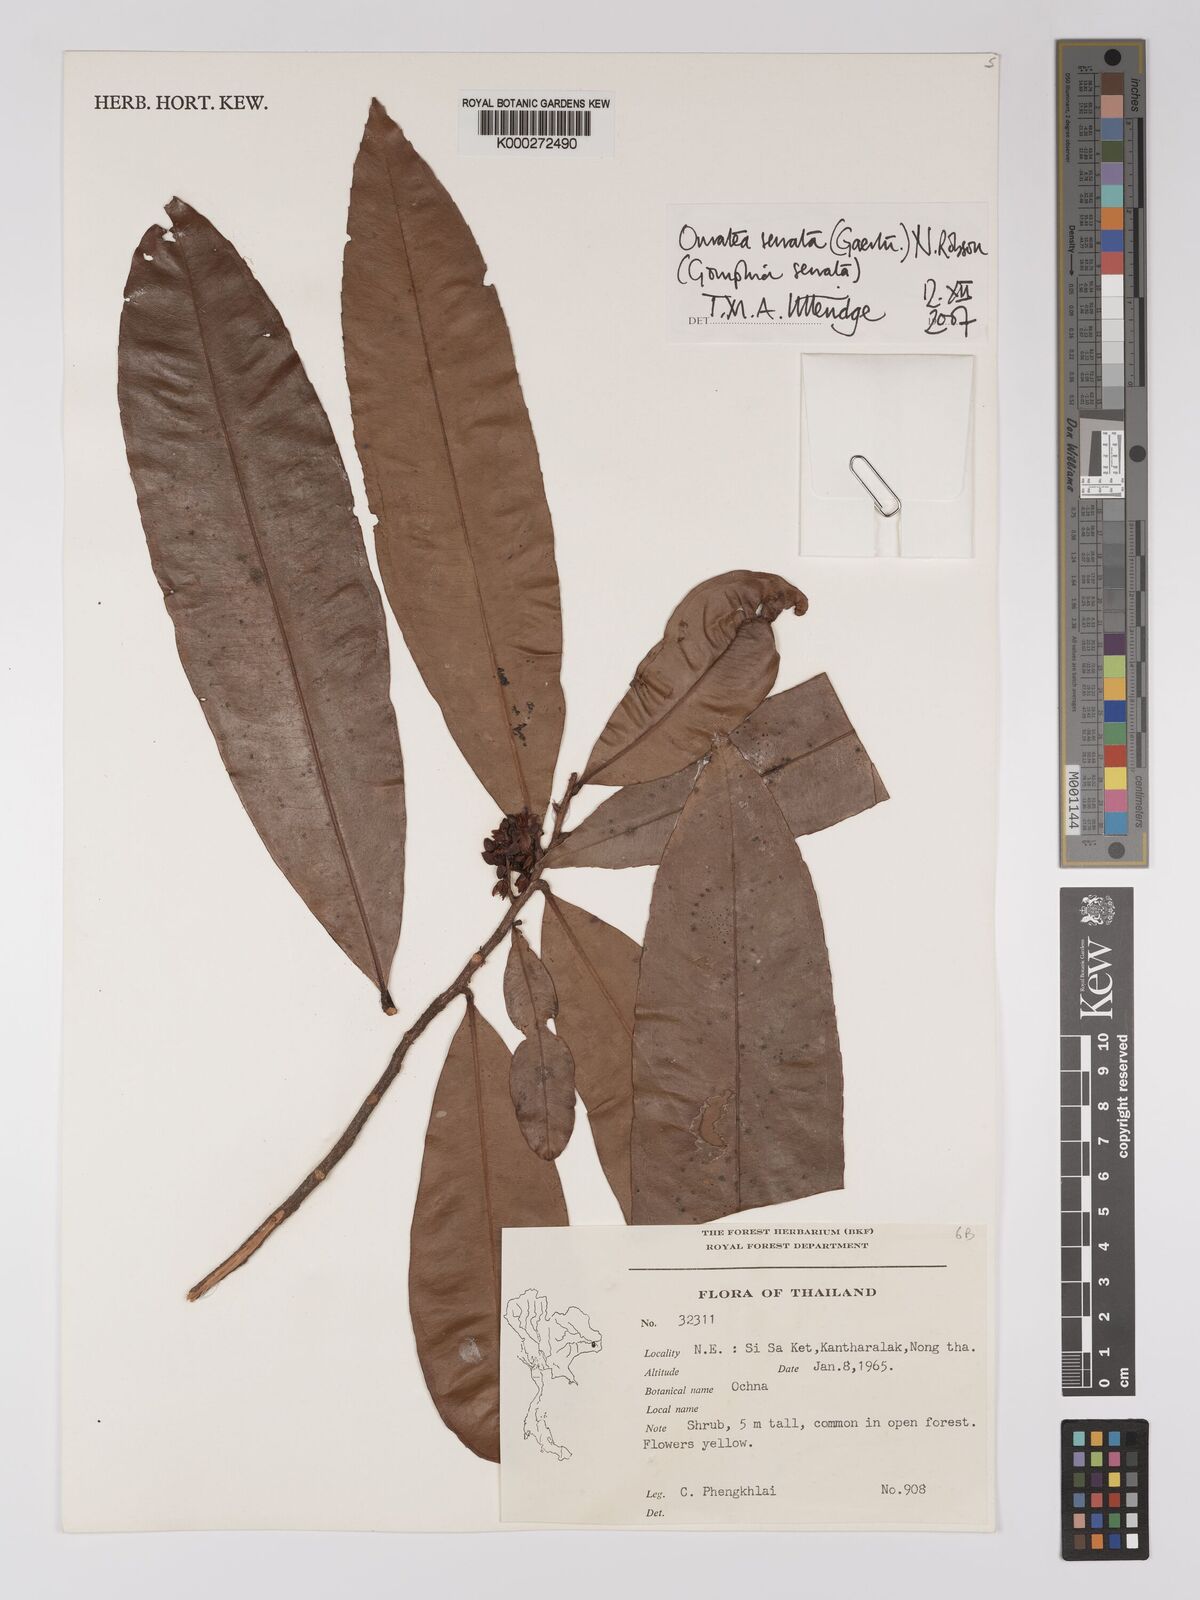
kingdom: Plantae
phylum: Tracheophyta
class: Magnoliopsida
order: Malpighiales
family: Ochnaceae
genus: Gomphia
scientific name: Gomphia serrata
